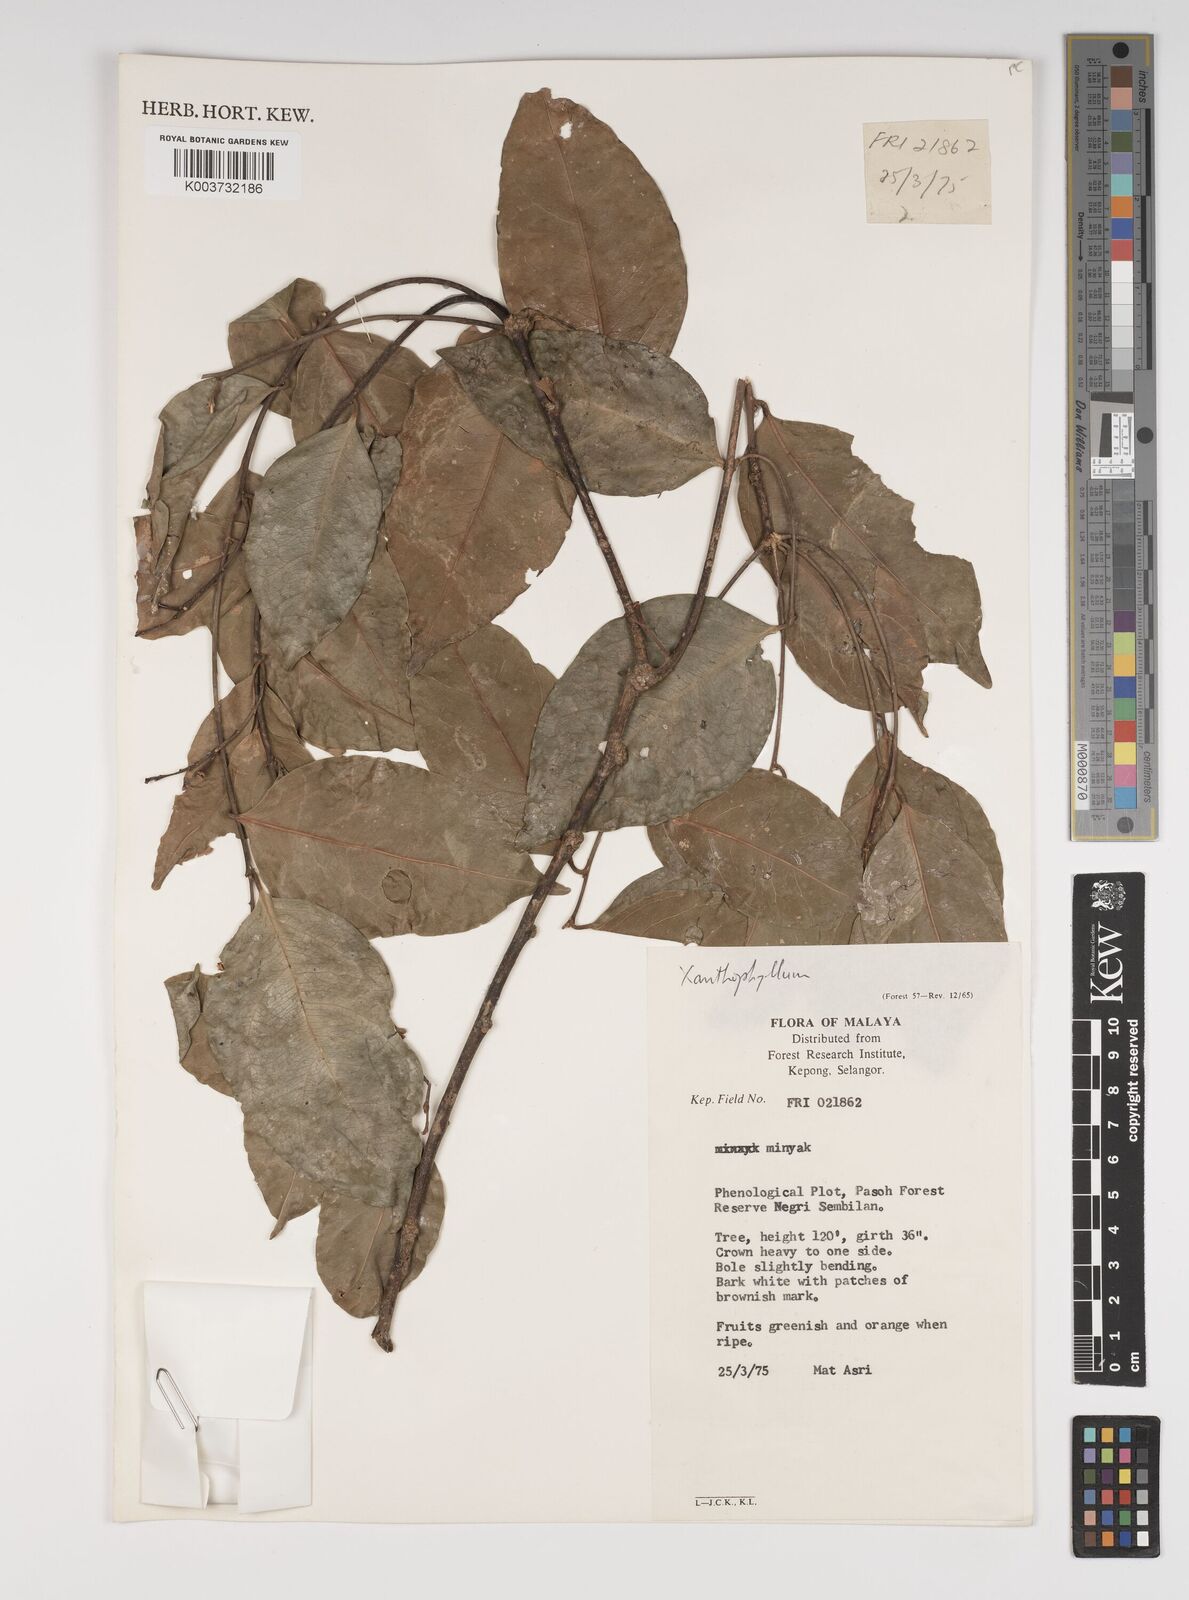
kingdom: Plantae
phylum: Tracheophyta
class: Magnoliopsida
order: Fabales
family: Polygalaceae
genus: Xanthophyllum
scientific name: Xanthophyllum
